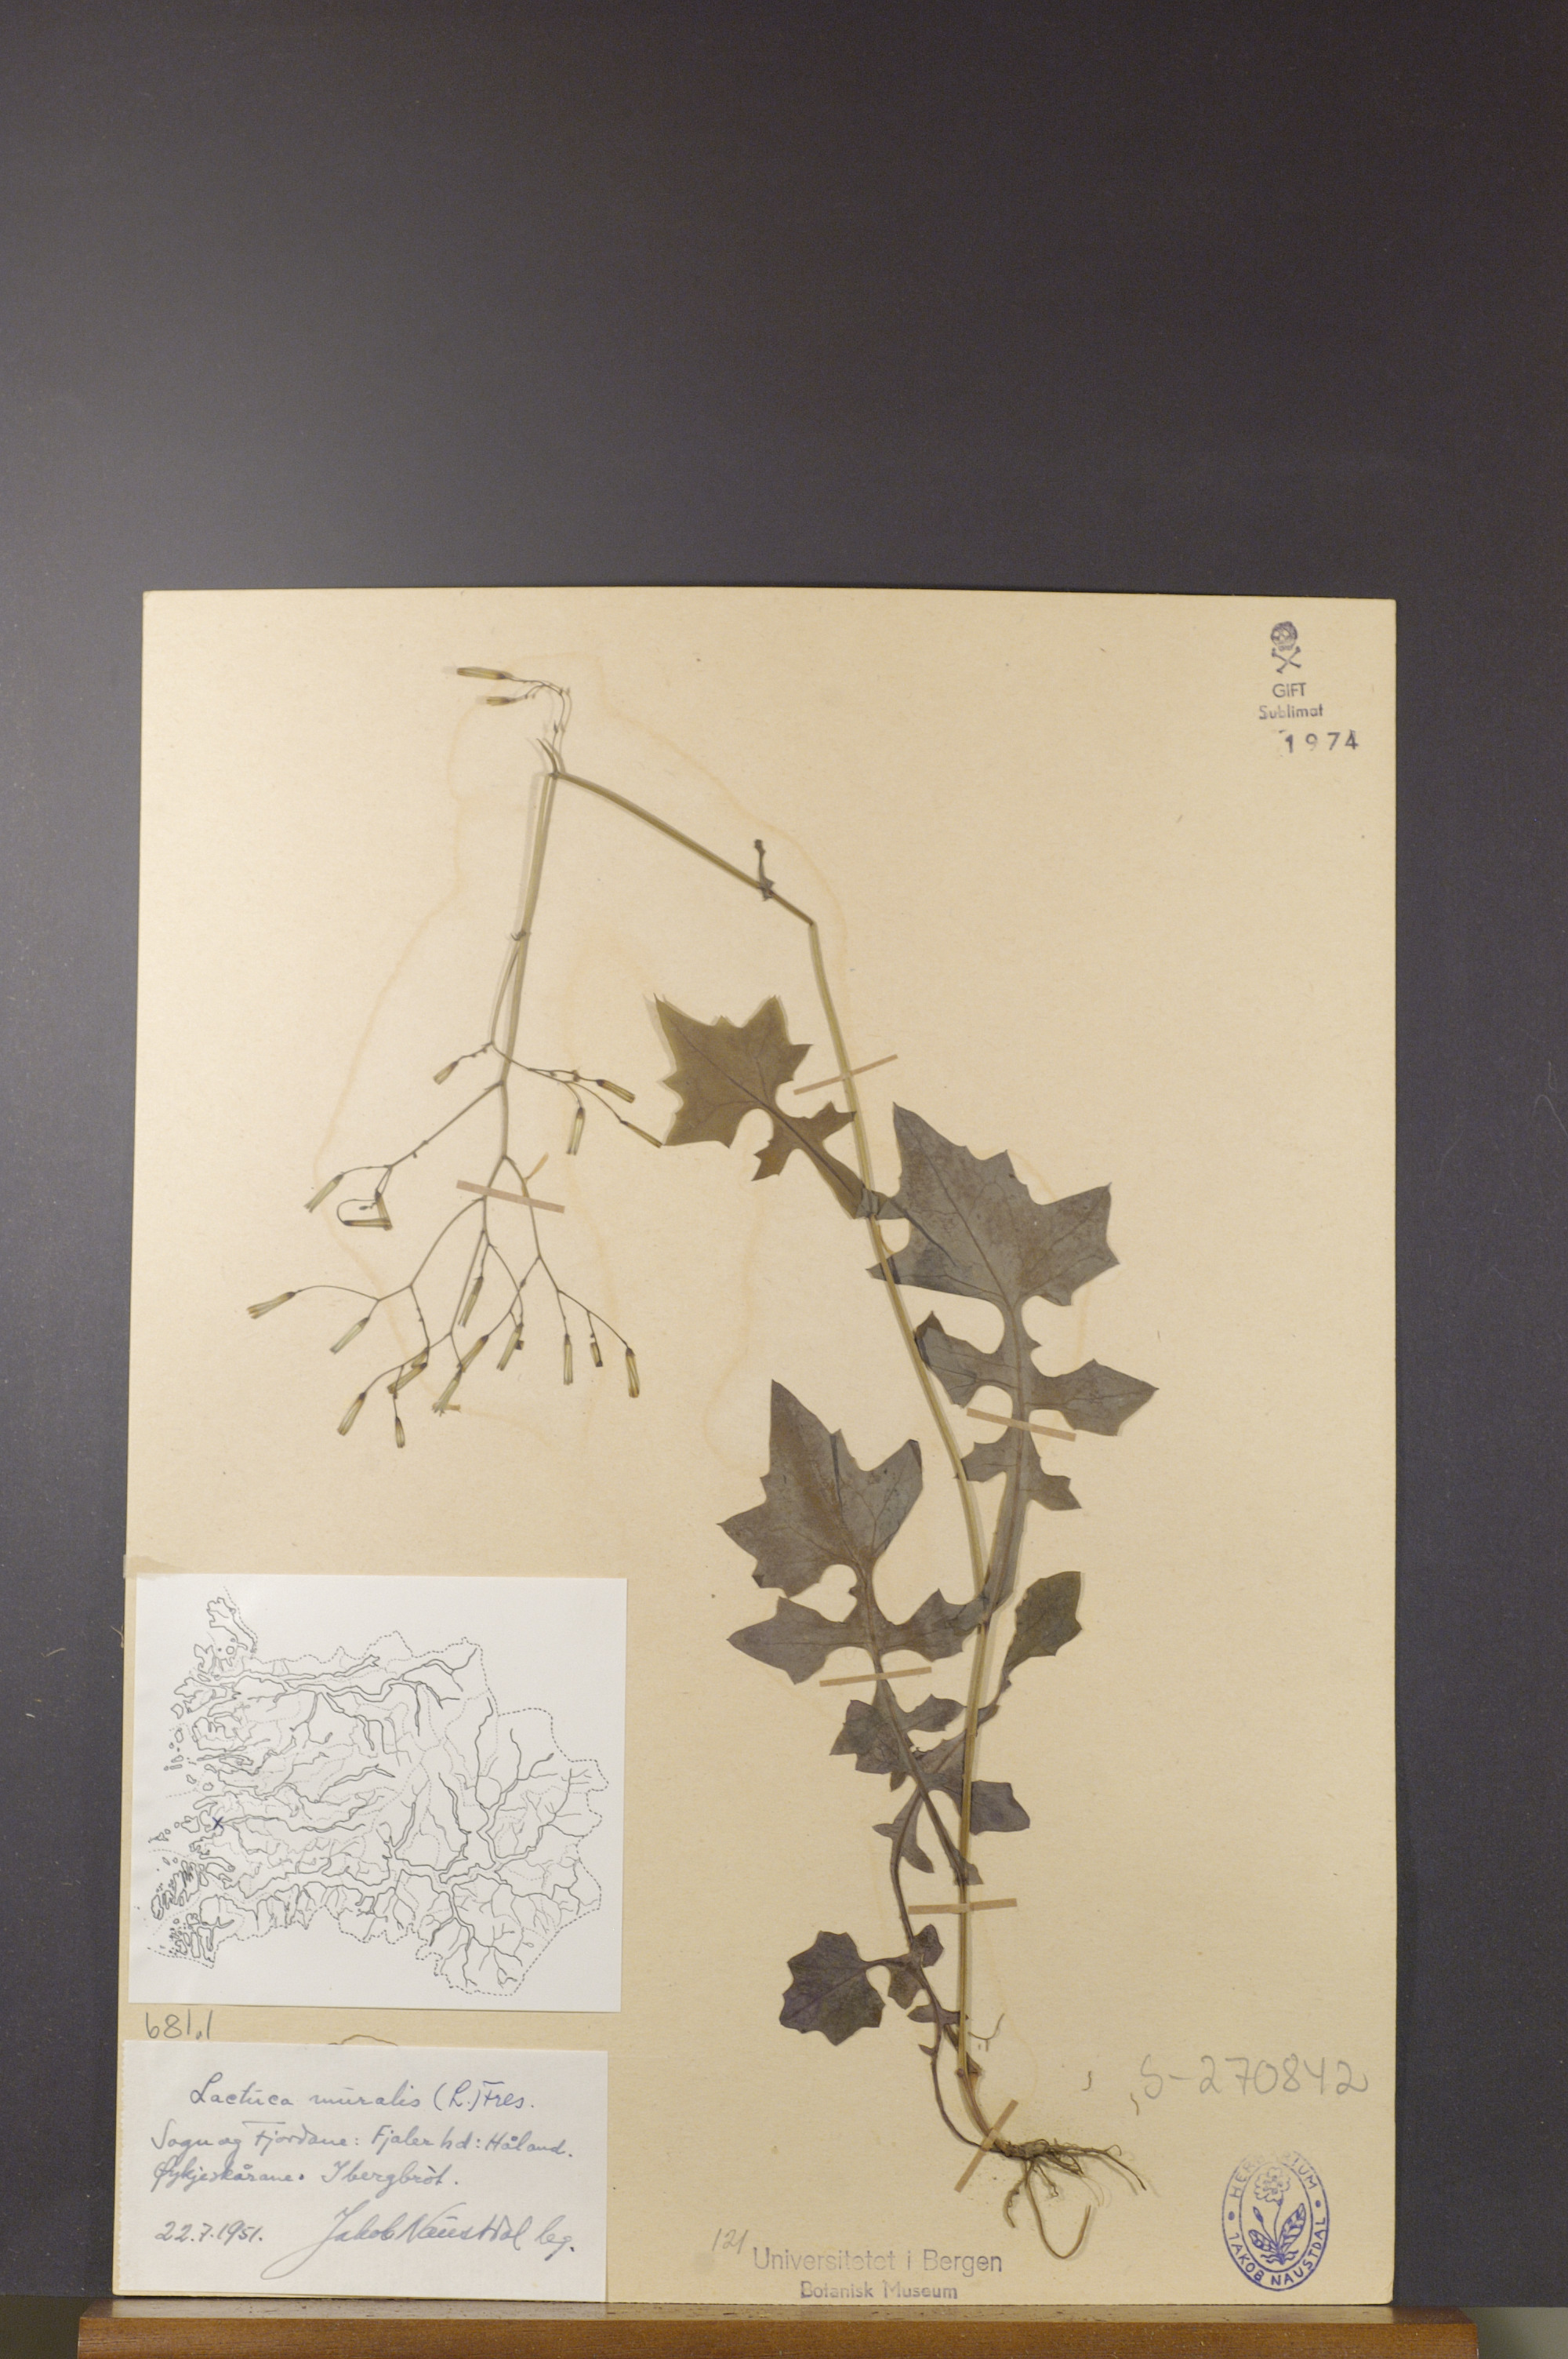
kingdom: Plantae
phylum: Tracheophyta
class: Magnoliopsida
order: Asterales
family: Asteraceae
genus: Mycelis
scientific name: Mycelis muralis
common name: Wall lettuce
